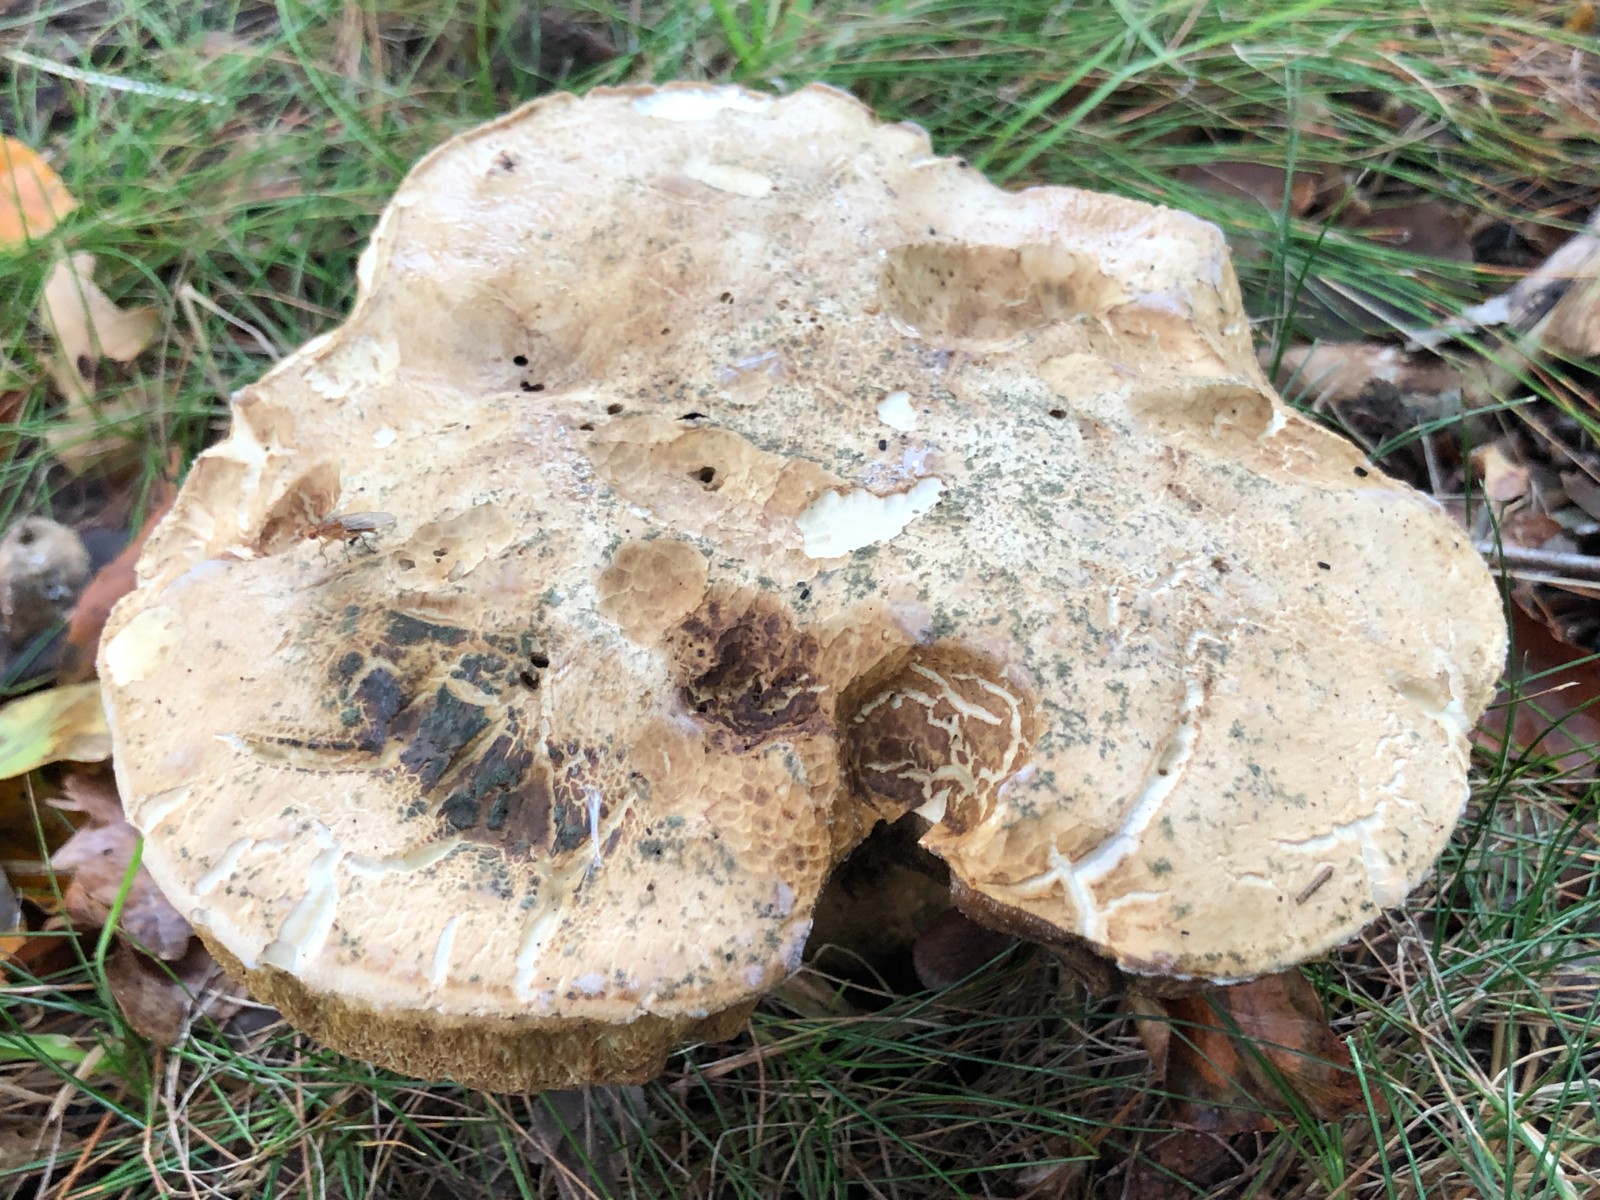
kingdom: Fungi
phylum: Basidiomycota
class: Agaricomycetes
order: Boletales
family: Boletaceae
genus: Caloboletus
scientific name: Caloboletus radicans
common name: rod-rørhat
